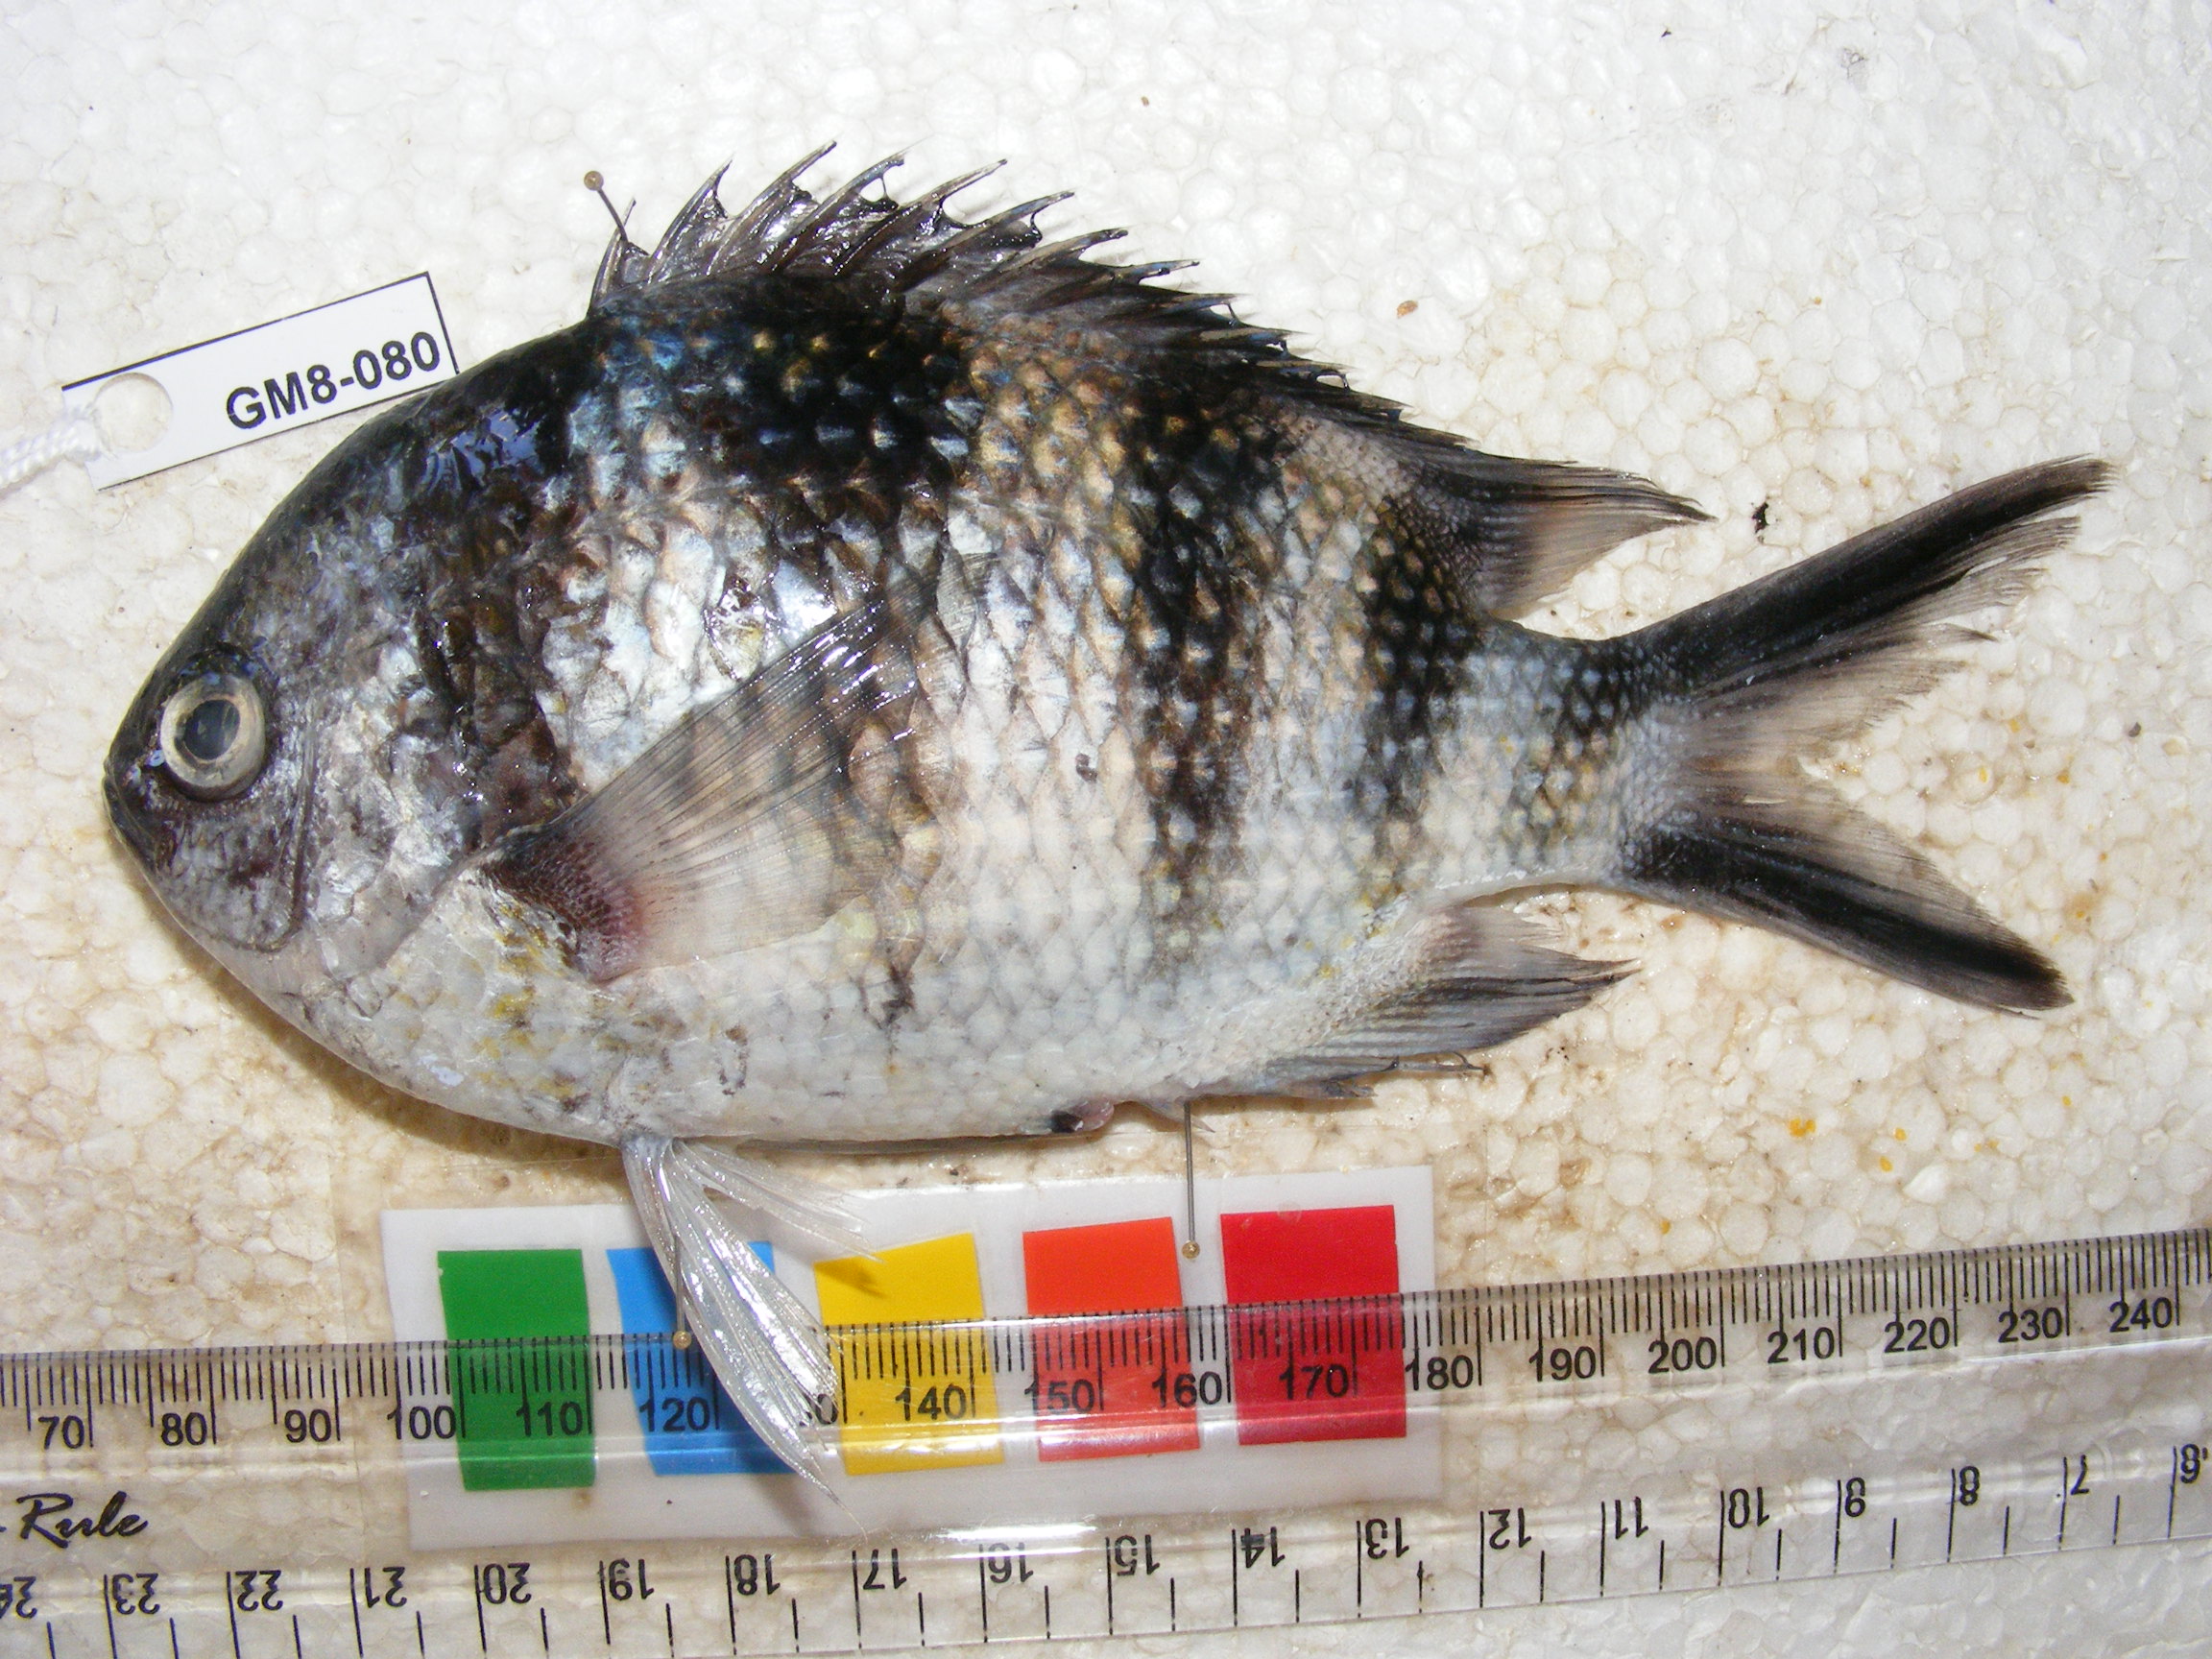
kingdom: Animalia
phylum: Chordata
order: Perciformes
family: Pomacentridae
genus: Abudefduf
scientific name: Abudefduf sexfasciatus
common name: Scissortail sergeant
